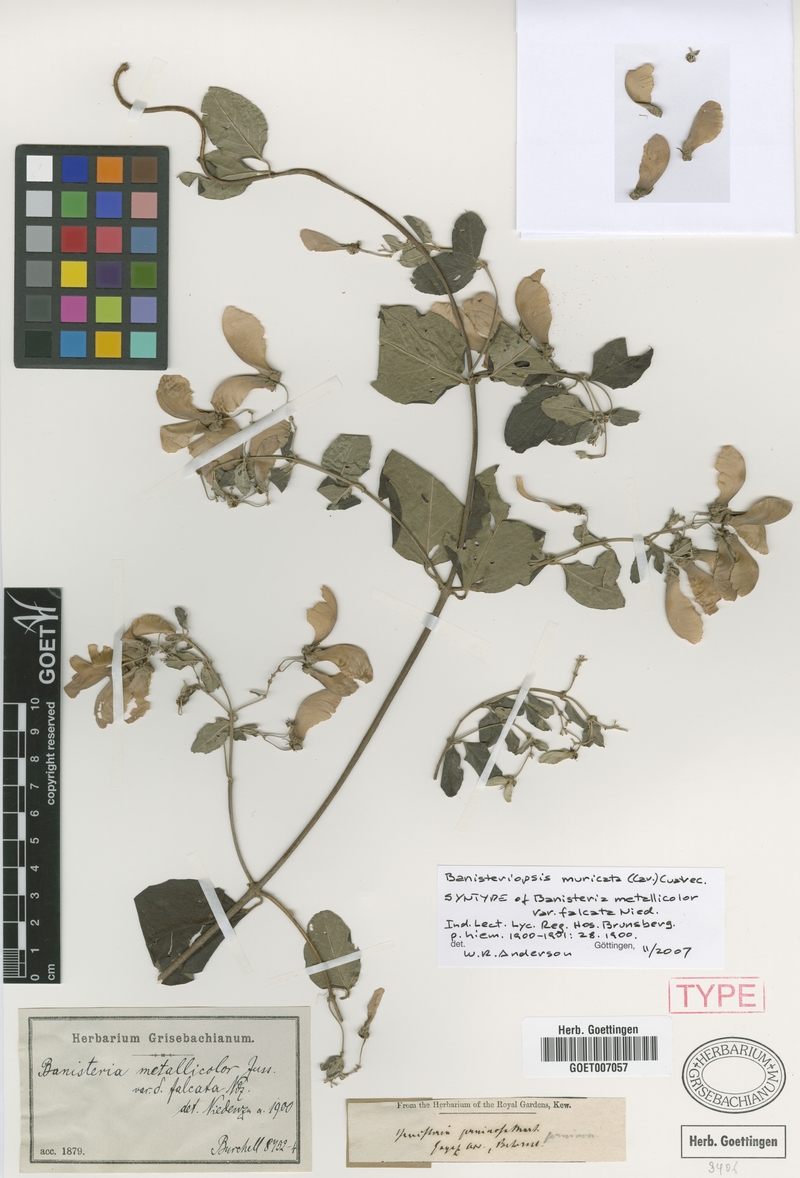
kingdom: Plantae
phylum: Tracheophyta
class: Magnoliopsida
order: Malpighiales
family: Malpighiaceae
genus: Banisteriopsis
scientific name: Banisteriopsis muricata
